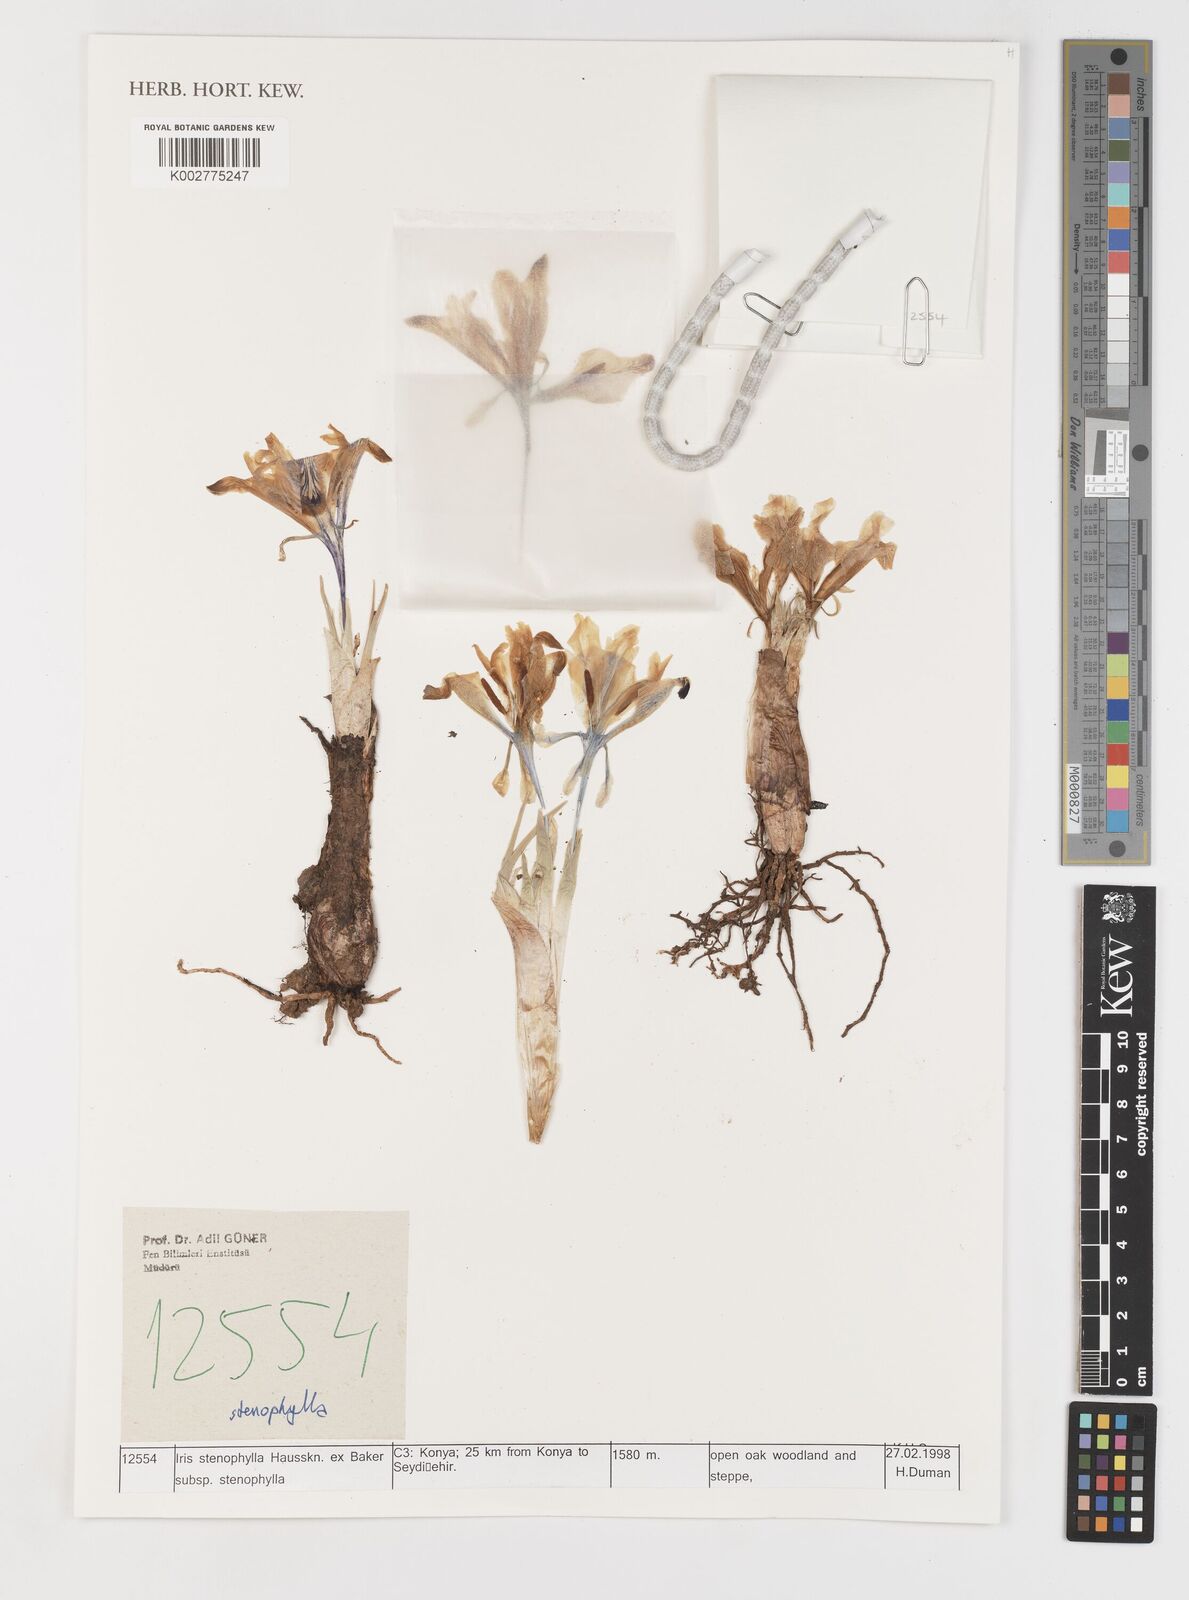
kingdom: Plantae
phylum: Tracheophyta
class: Liliopsida
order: Asparagales
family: Iridaceae
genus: Iris
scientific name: Iris stenophylla
